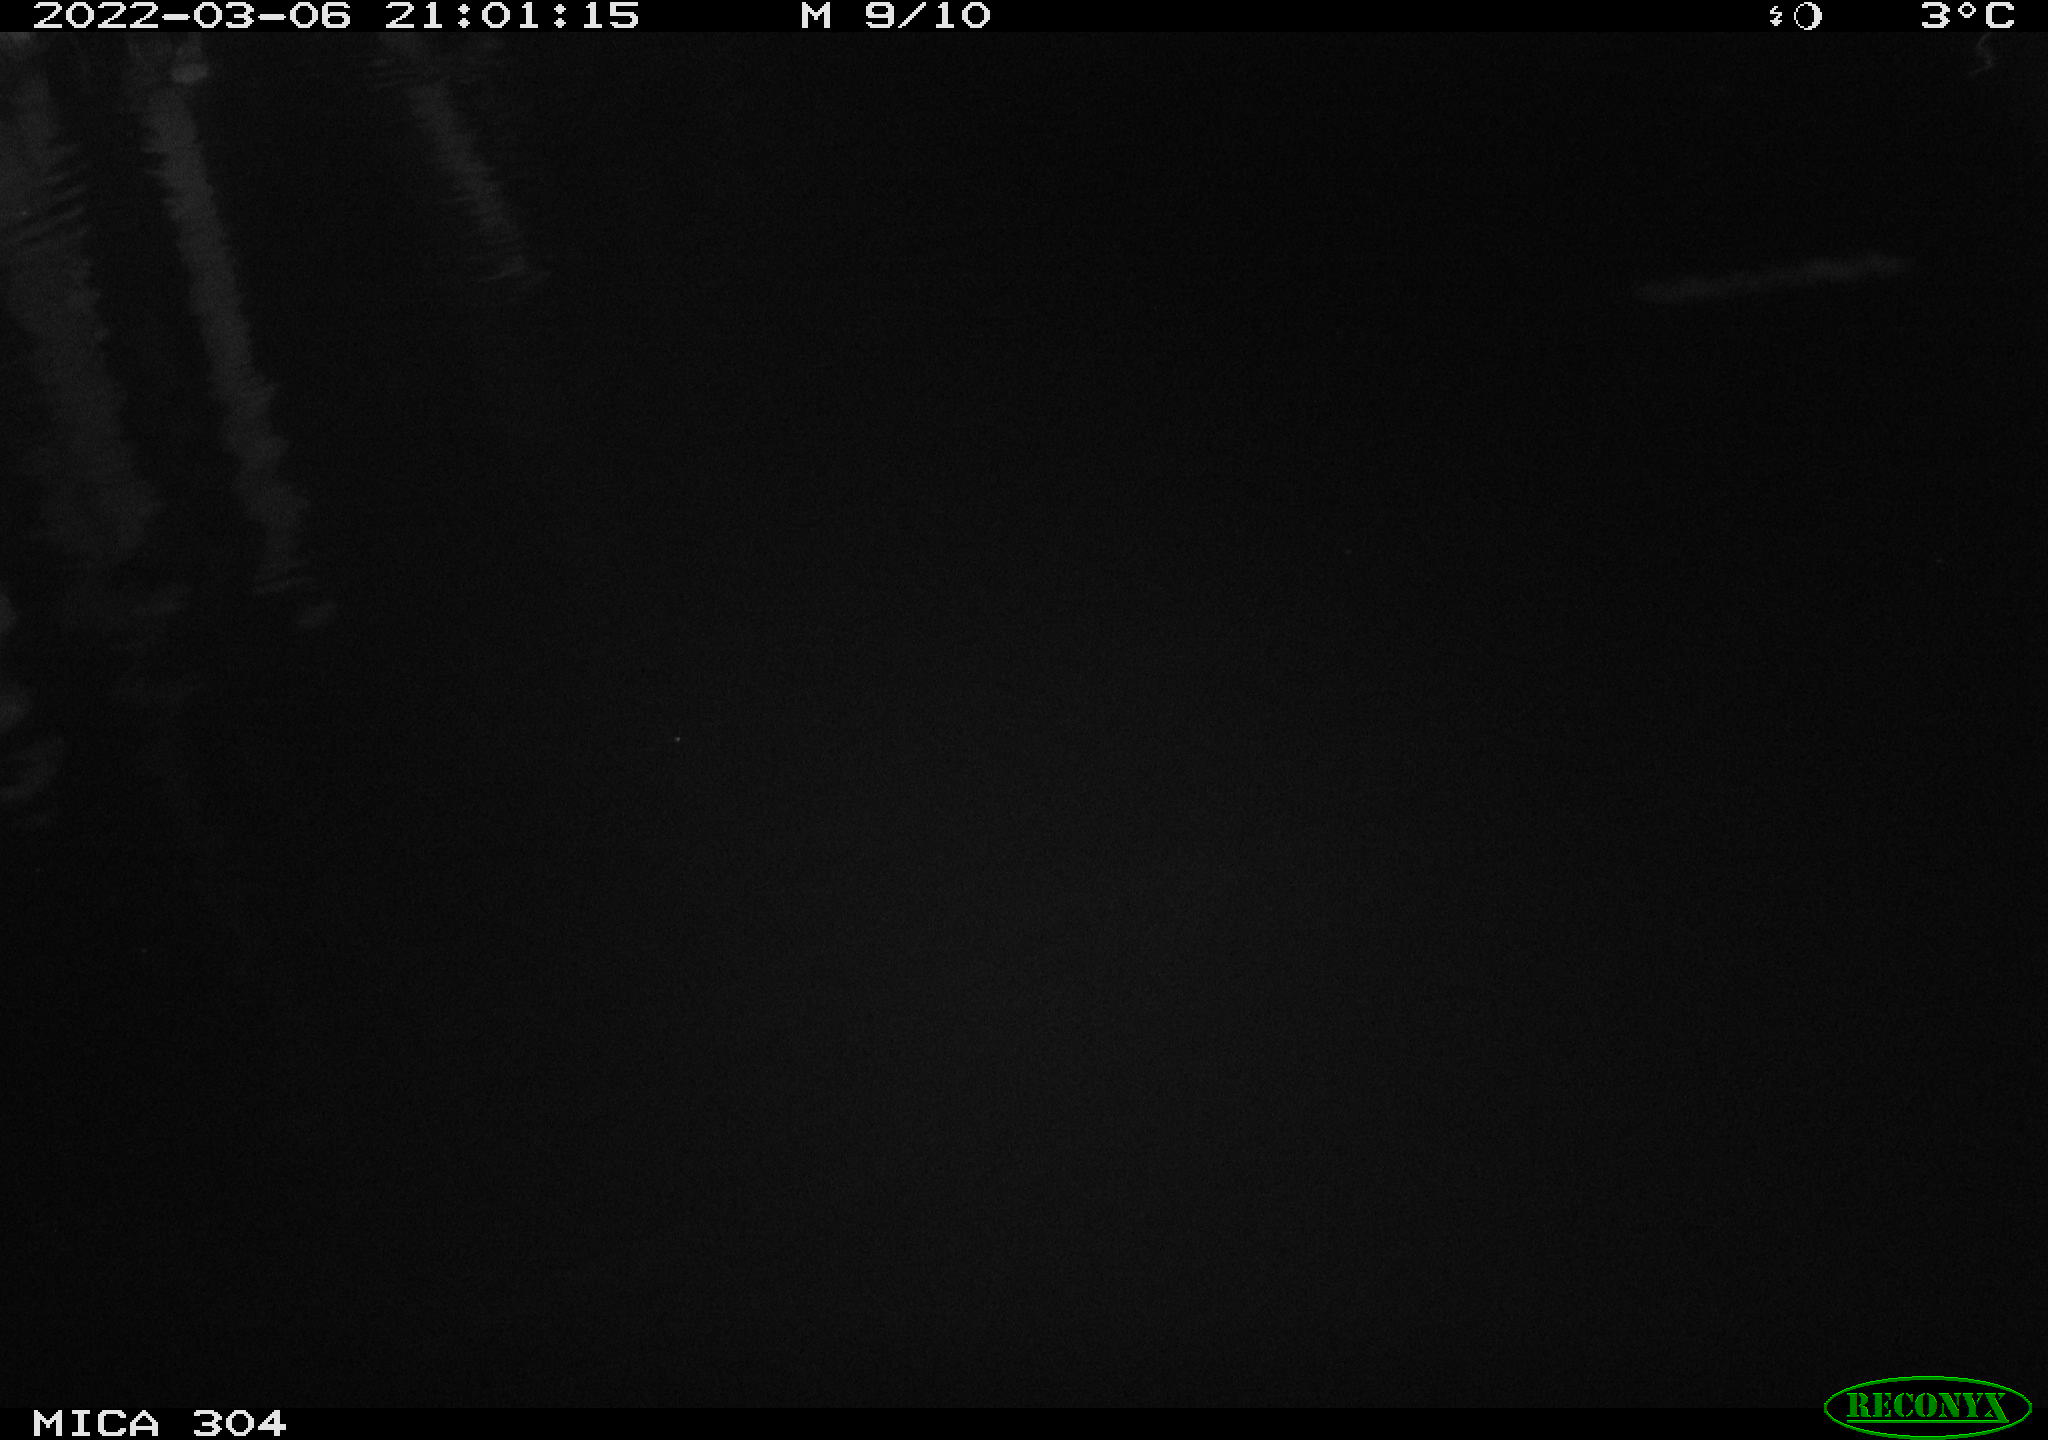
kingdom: Animalia
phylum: Chordata
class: Mammalia
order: Rodentia
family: Muridae
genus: Rattus
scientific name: Rattus norvegicus
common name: Brown rat
